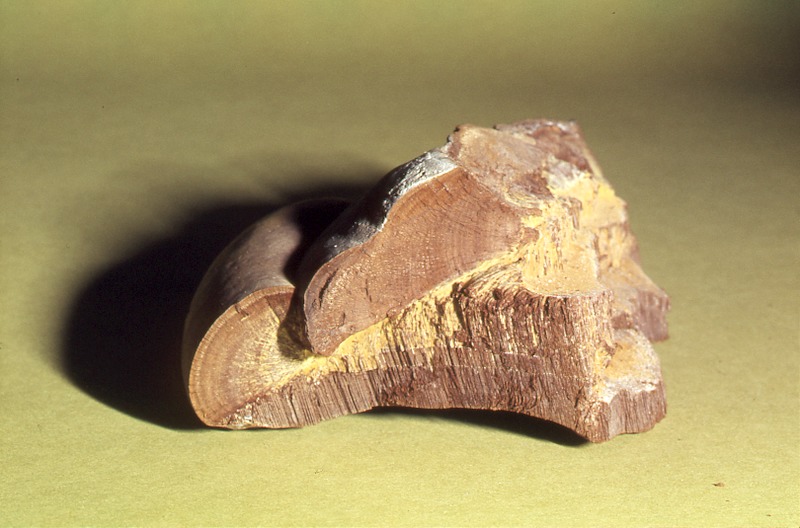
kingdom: Plantae
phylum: Tracheophyta
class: Magnoliopsida
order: Malpighiales
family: Salicaceae
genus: Salix
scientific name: Salix
